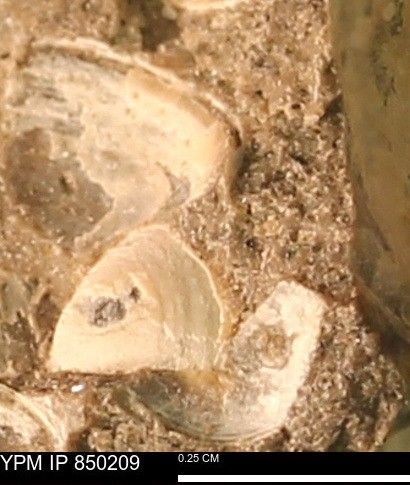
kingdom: Animalia
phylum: Mollusca
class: Cephalopoda
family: Collignoniceratidae
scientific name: Collignoniceratidae
